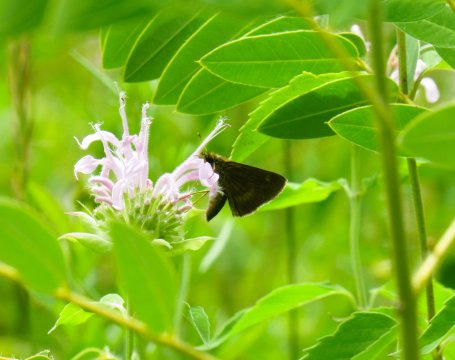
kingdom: Animalia
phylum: Arthropoda
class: Insecta
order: Lepidoptera
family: Hesperiidae
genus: Polites
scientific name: Polites egeremet
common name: Northern Broken-Dash
